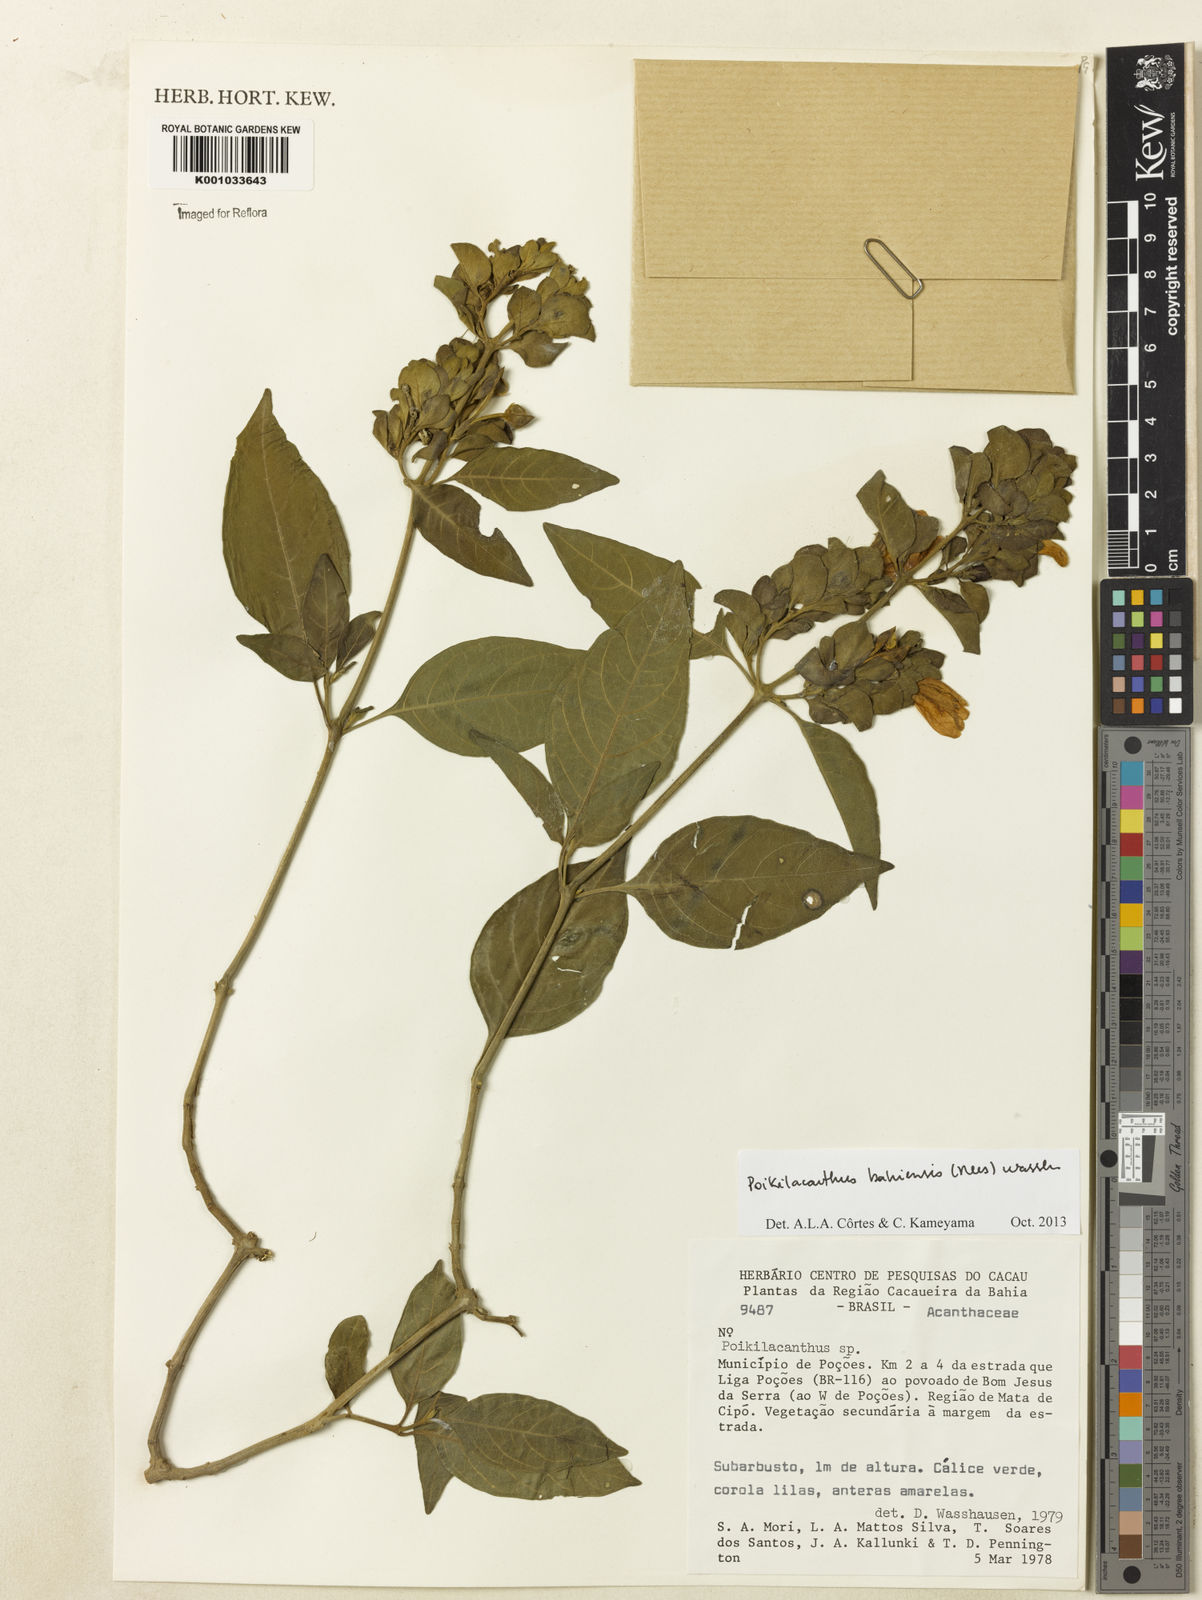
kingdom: Plantae
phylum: Tracheophyta
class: Magnoliopsida
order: Lamiales
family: Acanthaceae
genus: Poikilacanthus
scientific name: Poikilacanthus bahiensis
